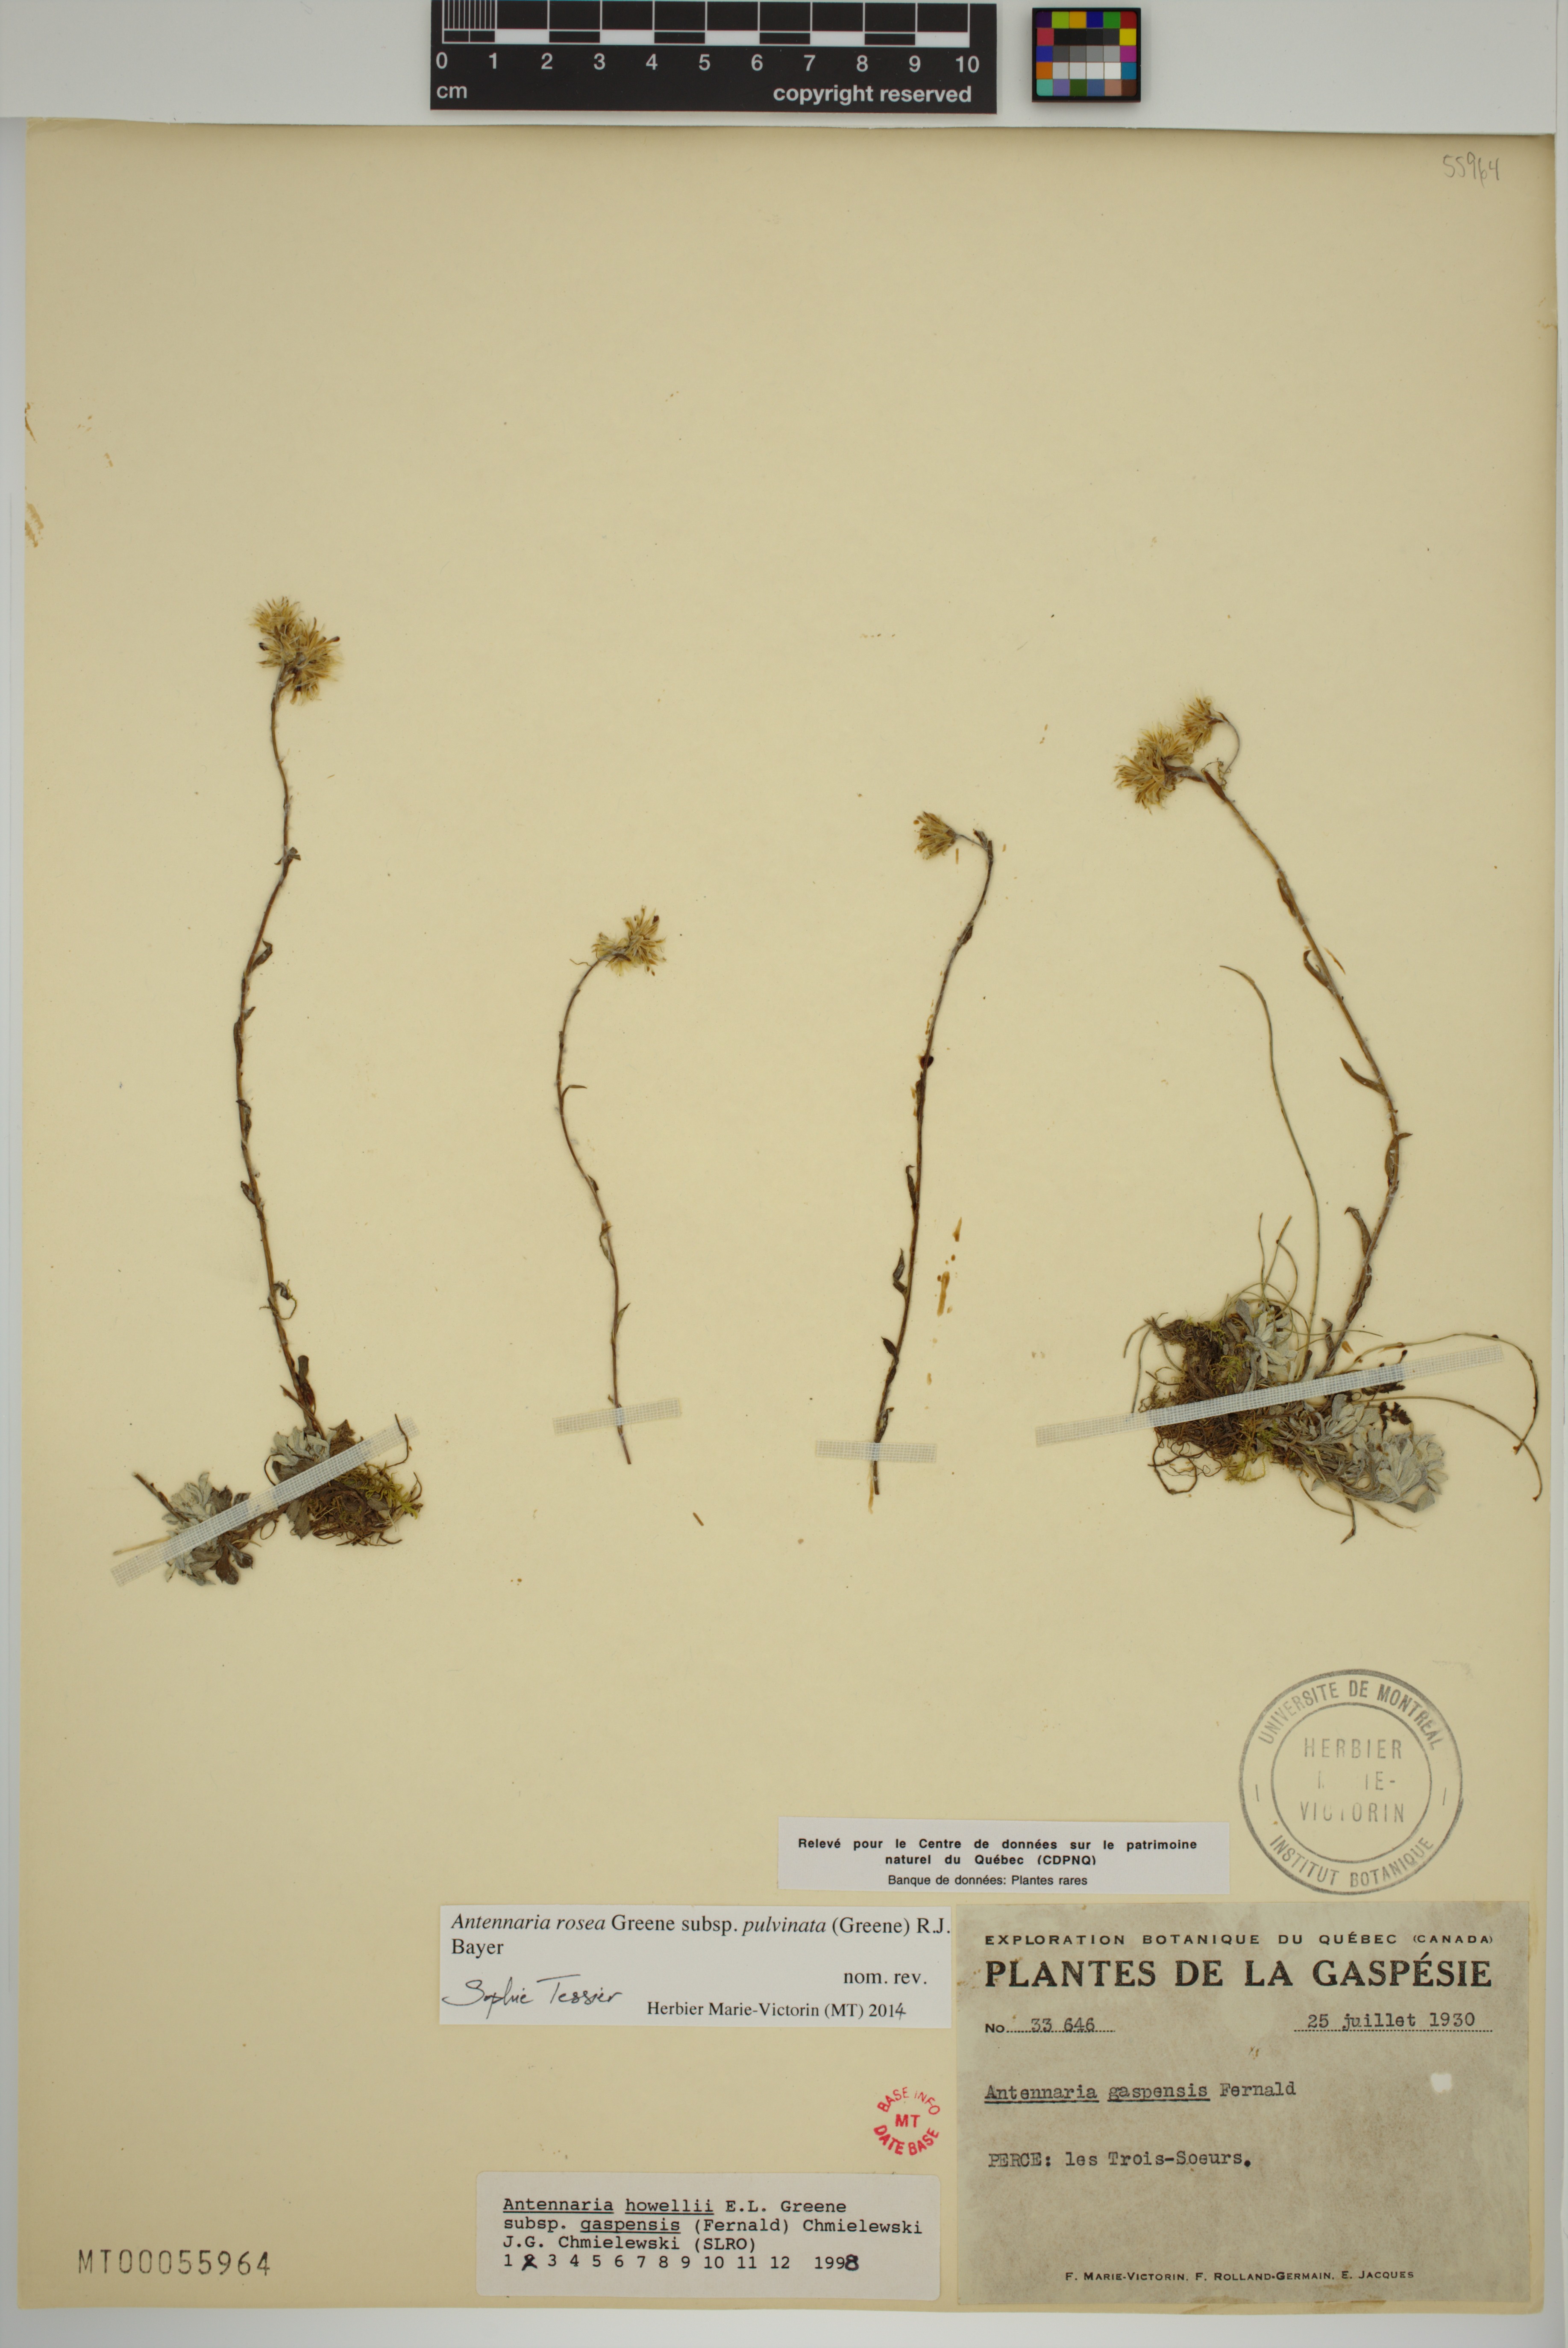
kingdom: Plantae
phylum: Tracheophyta
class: Magnoliopsida
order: Asterales
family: Asteraceae
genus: Antennaria
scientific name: Antennaria rosea
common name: Rosy pussytoes
